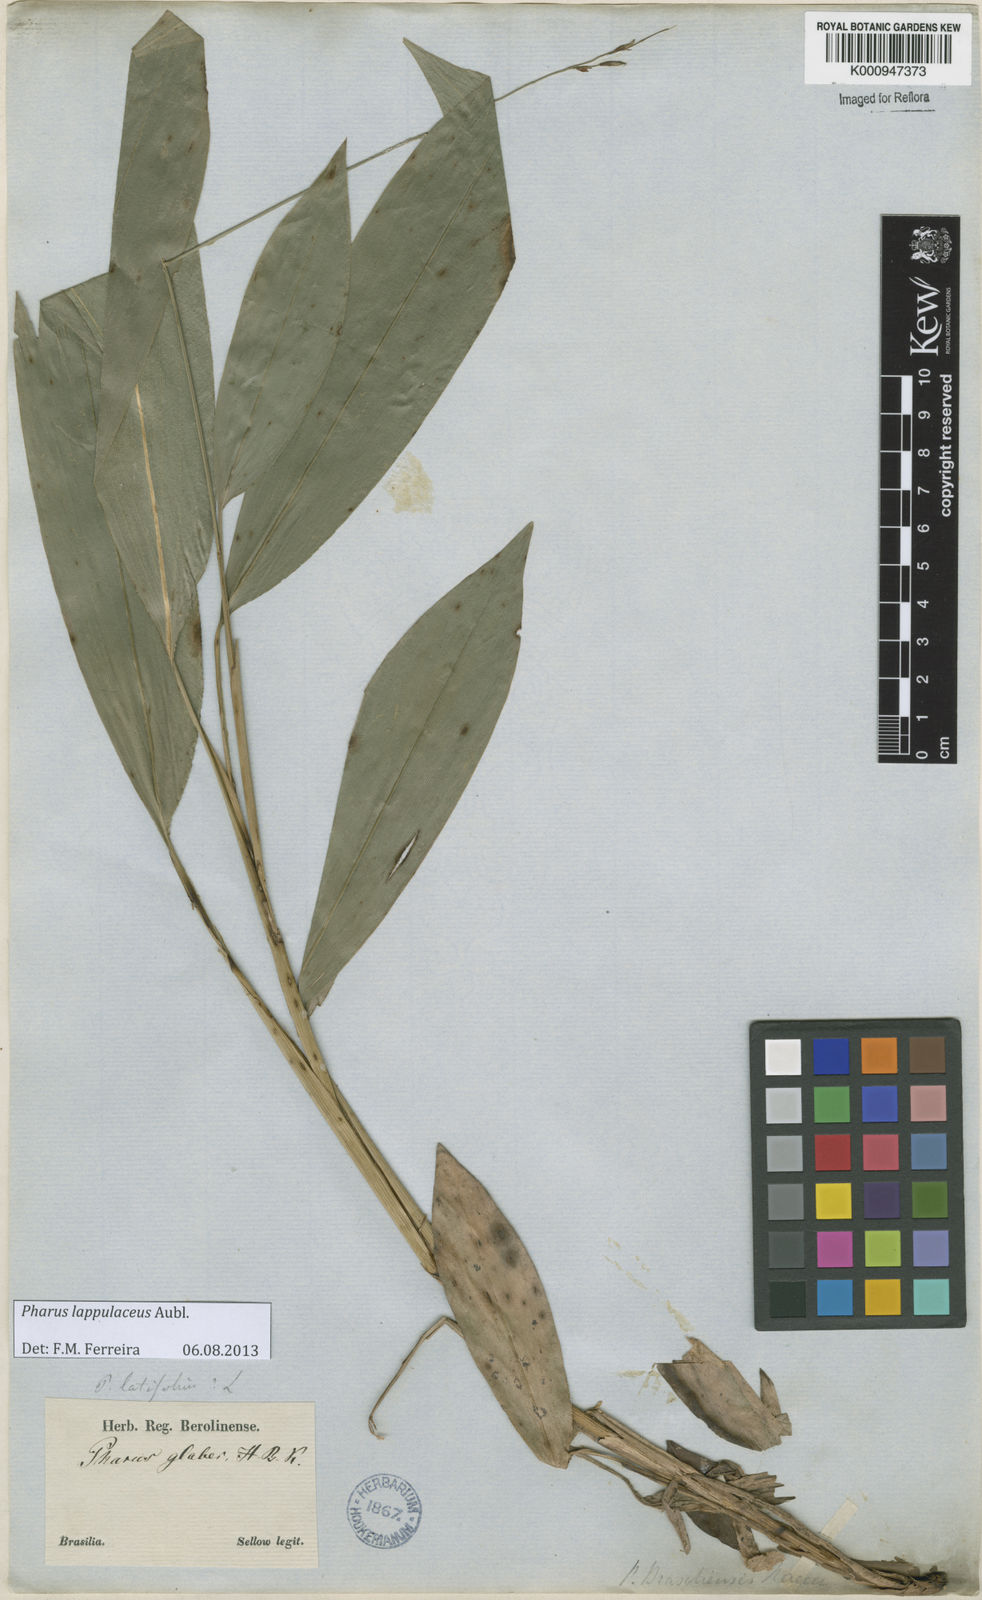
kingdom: Plantae
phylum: Tracheophyta
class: Liliopsida
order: Poales
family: Poaceae
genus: Pharus
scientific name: Pharus lappulaceus
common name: Creeping leafstalk grass
